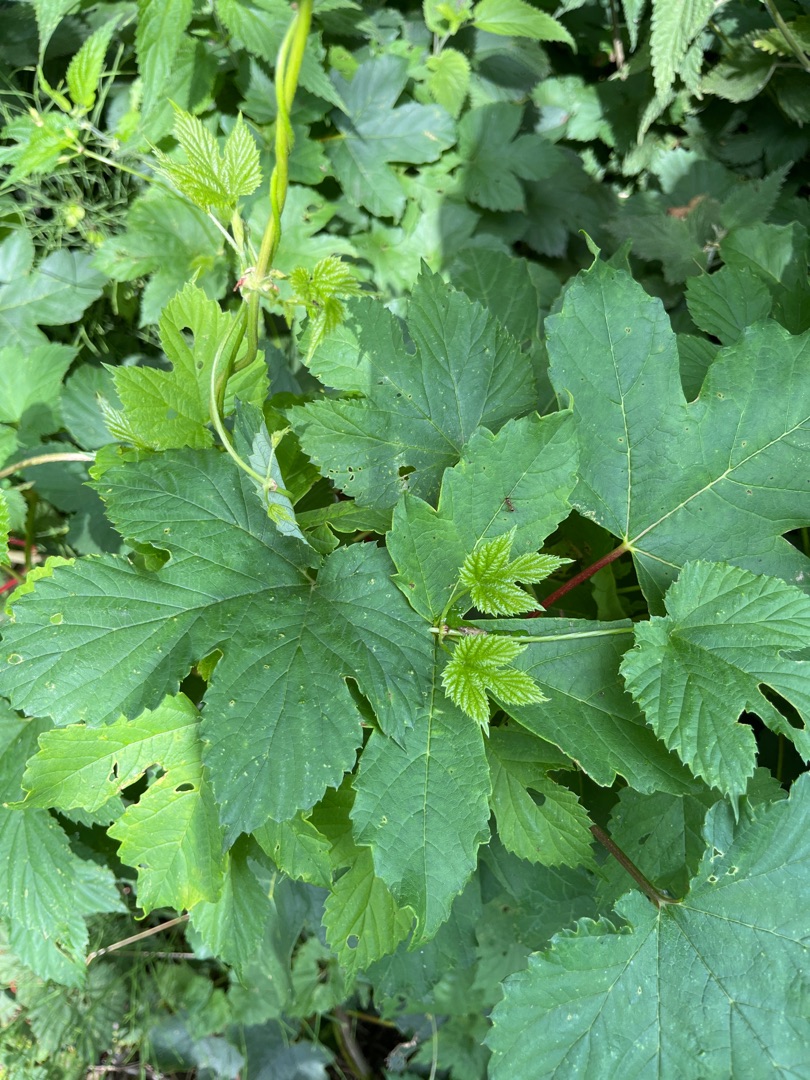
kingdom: Plantae
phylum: Tracheophyta
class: Magnoliopsida
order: Rosales
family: Cannabaceae
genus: Humulus
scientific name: Humulus lupulus
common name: Humle
